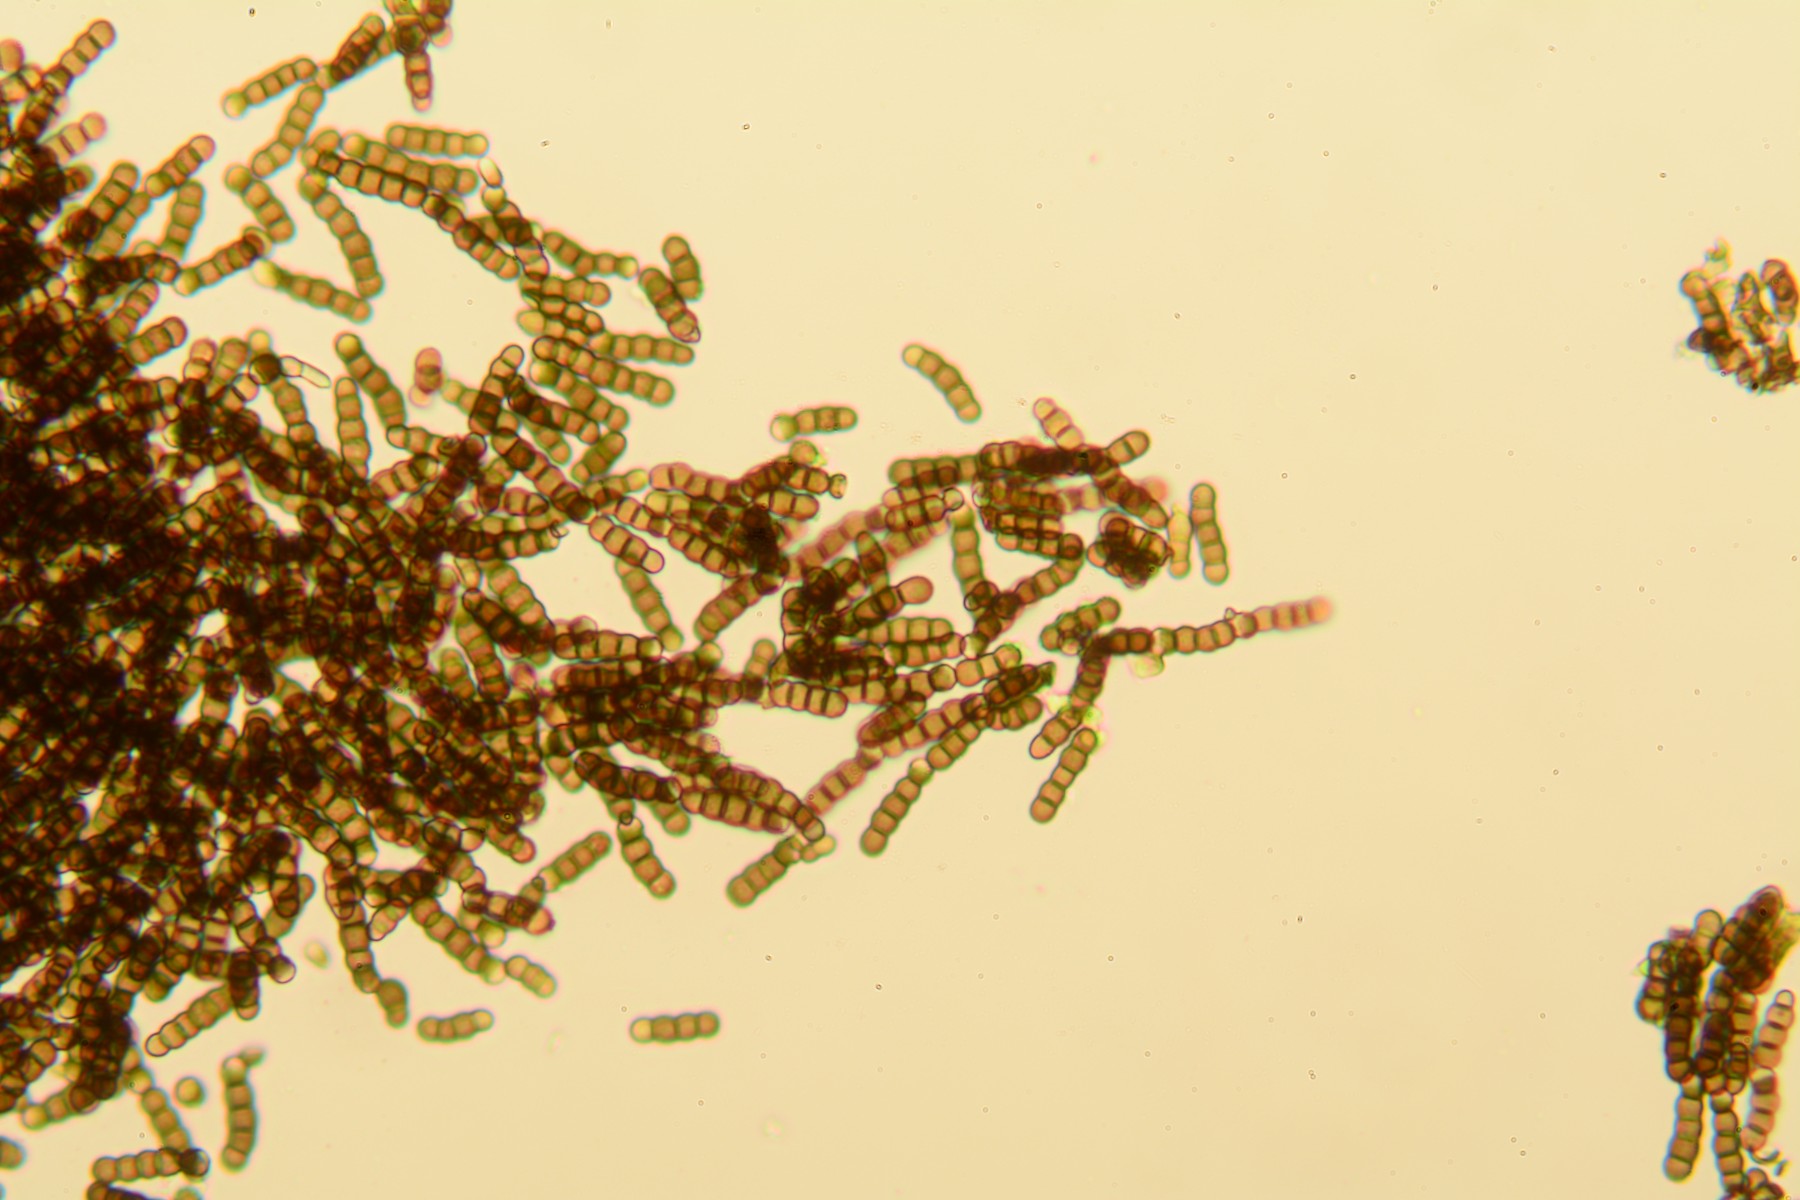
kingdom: Fungi
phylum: Ascomycota
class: Dothideomycetes
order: Pleosporales
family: Torulaceae
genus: Torula
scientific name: Torula herbarum
